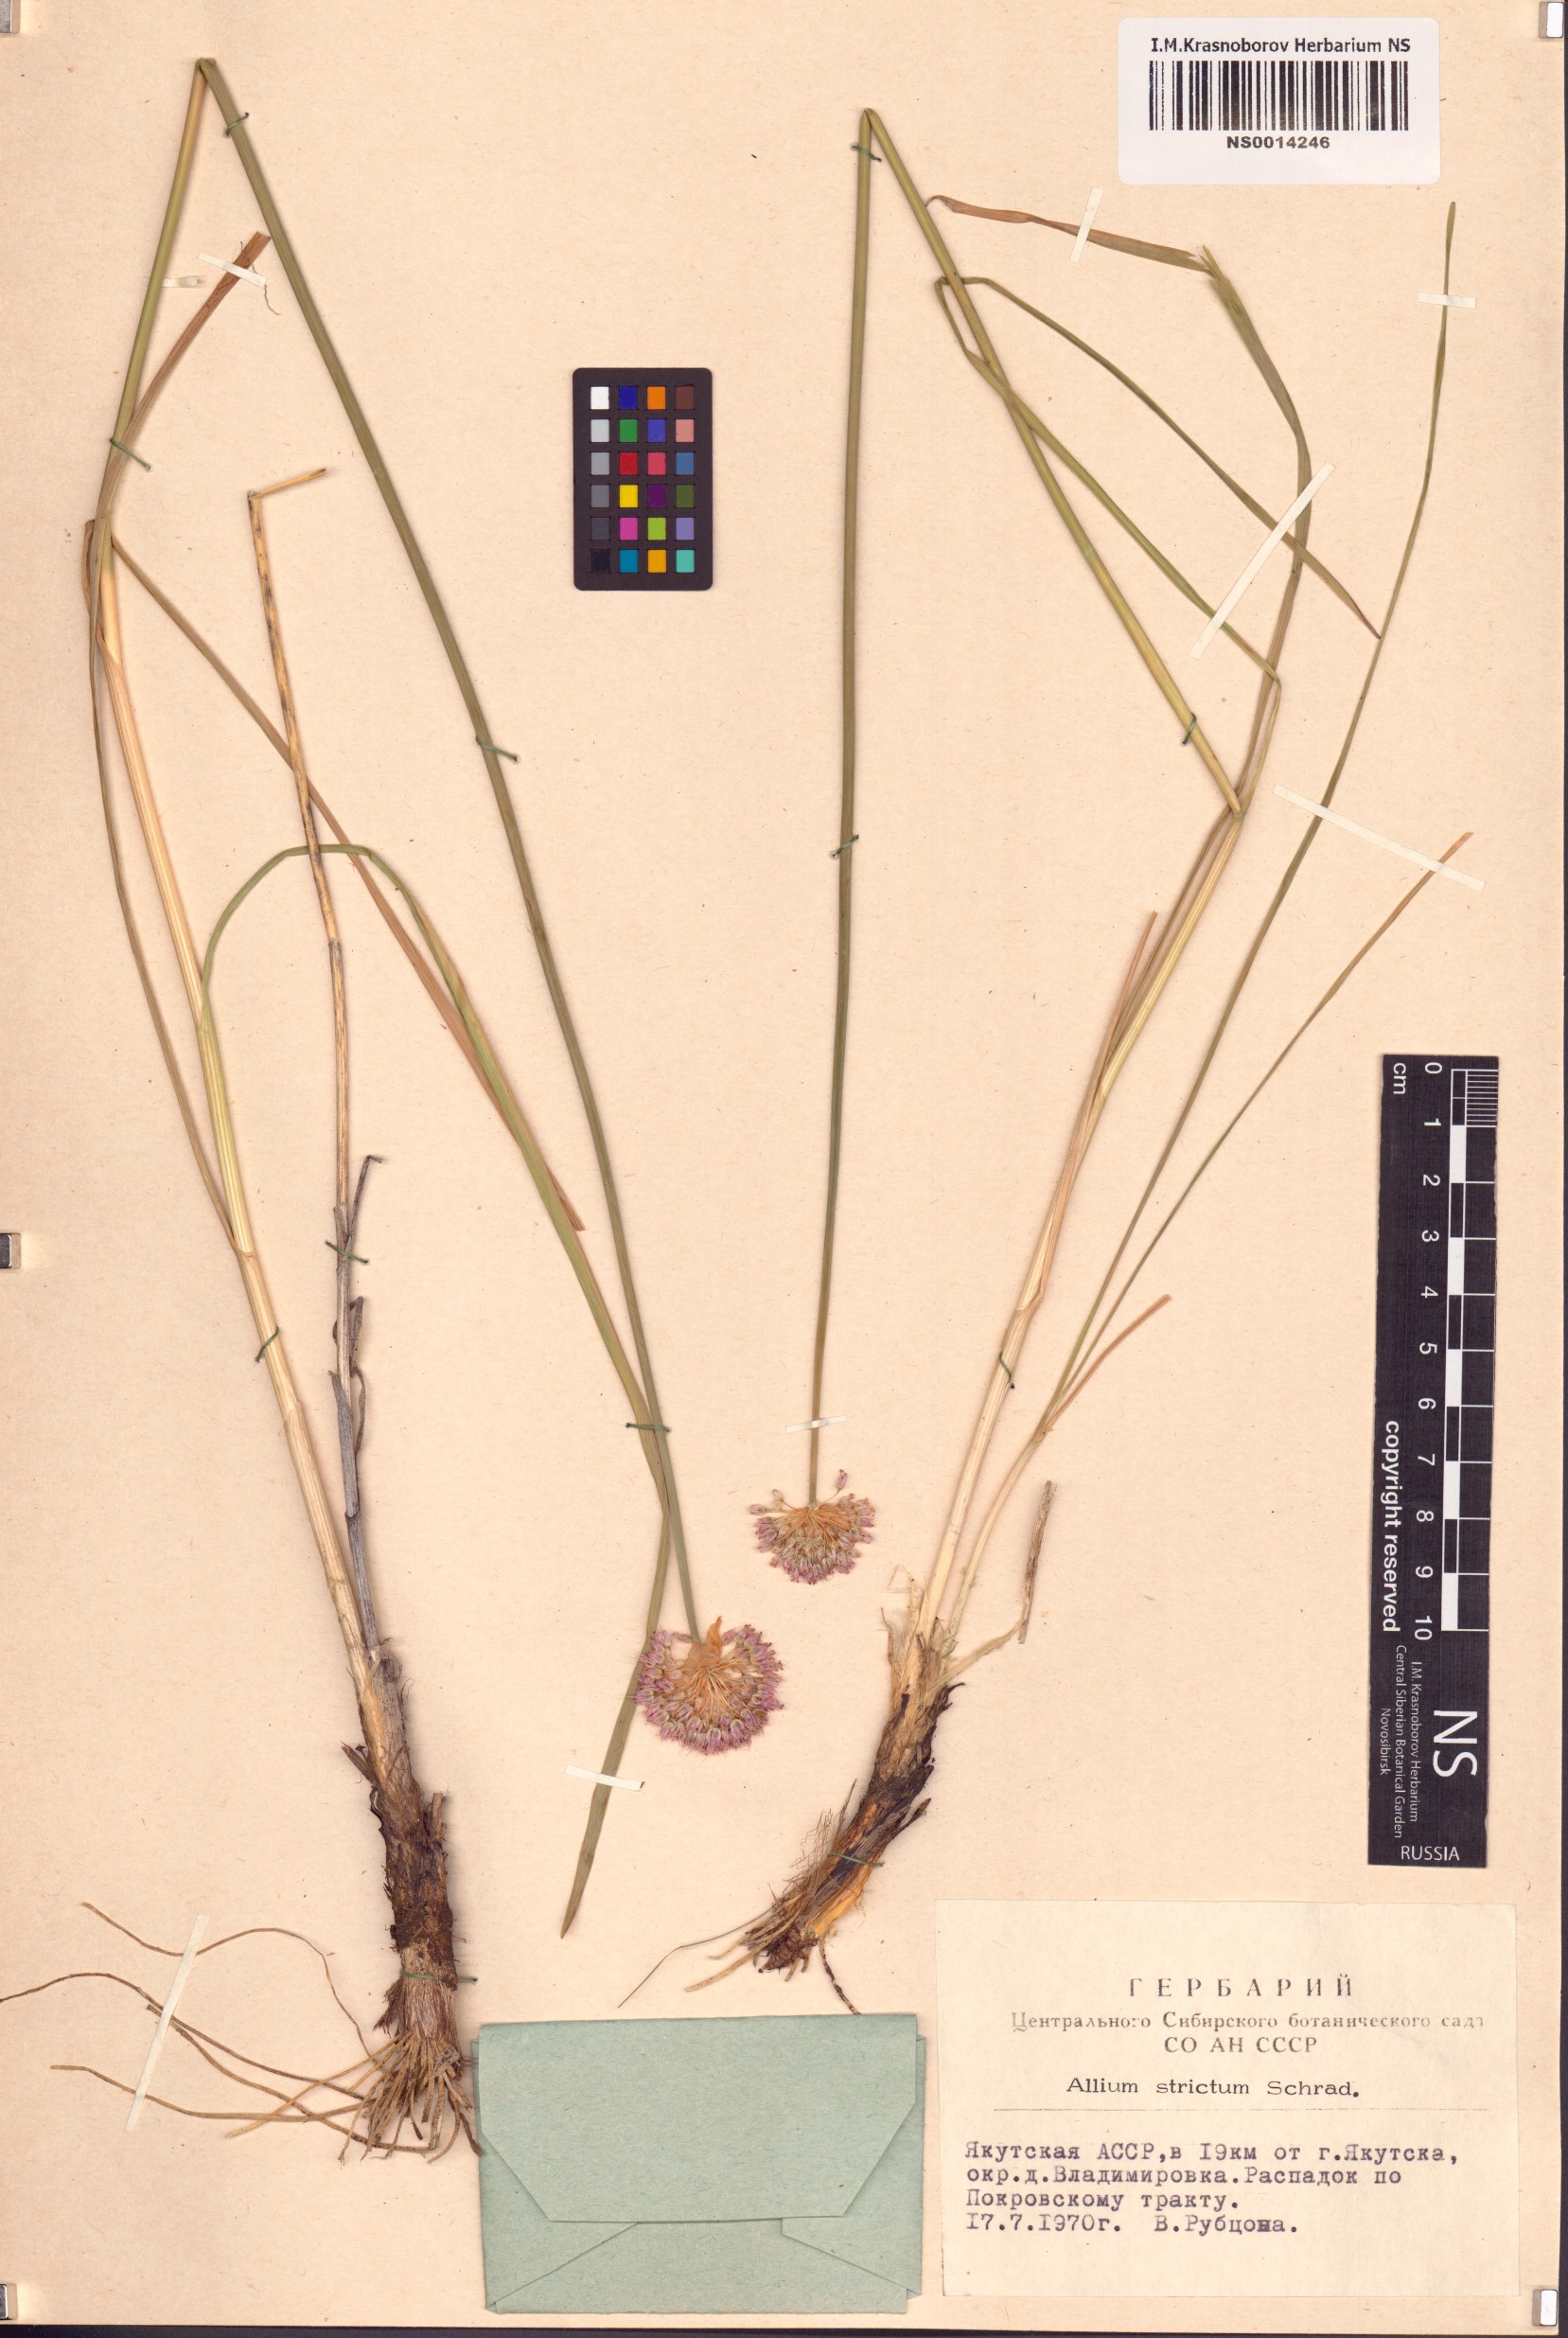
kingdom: Plantae
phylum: Tracheophyta
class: Liliopsida
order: Asparagales
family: Amaryllidaceae
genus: Allium
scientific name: Allium strictum
